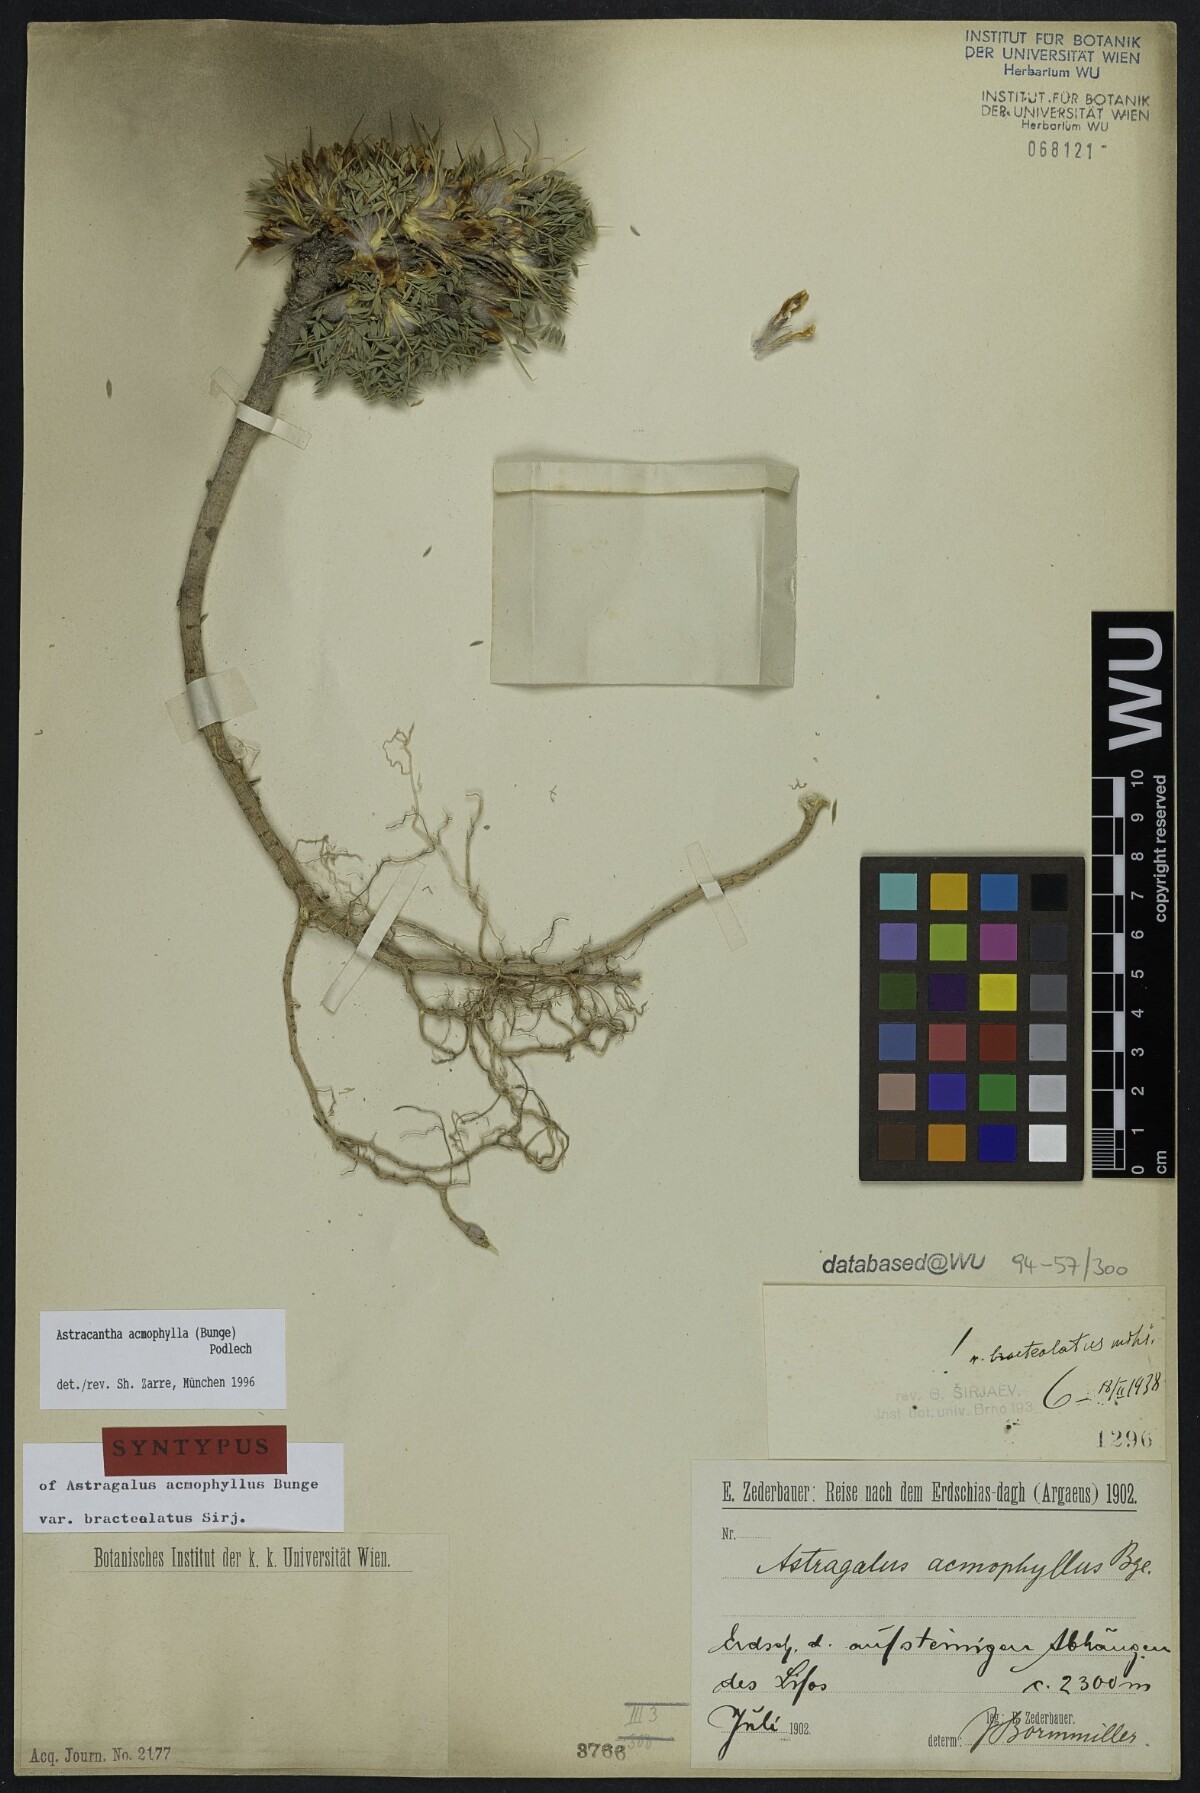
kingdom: Plantae
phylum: Tracheophyta
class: Magnoliopsida
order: Fabales
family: Fabaceae
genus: Astragalus
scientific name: Astragalus acmophyllus
